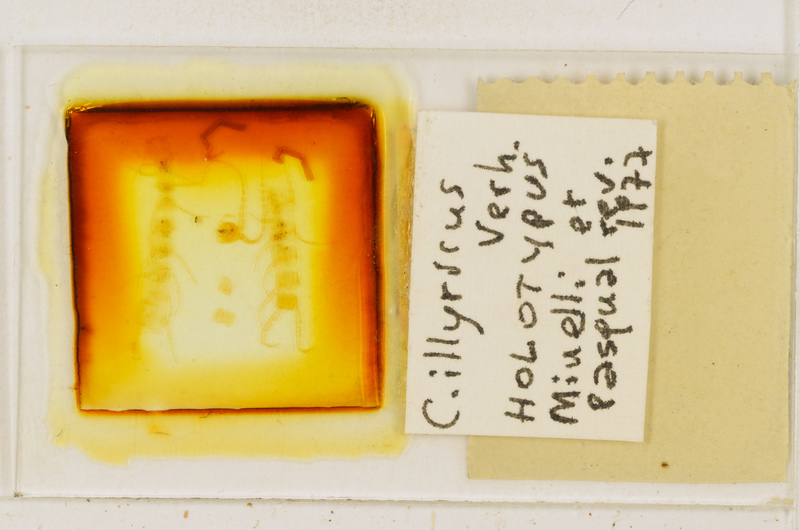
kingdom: Animalia
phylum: Arthropoda
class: Chilopoda
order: Scolopendromorpha
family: Cryptopidae
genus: Cryptops
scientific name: Cryptops illyricus
